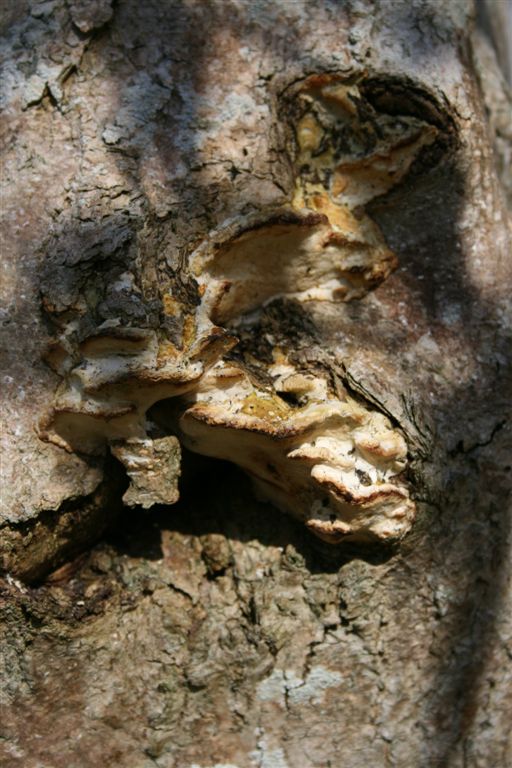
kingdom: Fungi
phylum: Basidiomycota
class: Agaricomycetes
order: Hymenochaetales
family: Oxyporaceae
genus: Oxyporus
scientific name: Oxyporus populinus
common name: sammenvokset trylleporesvamp
